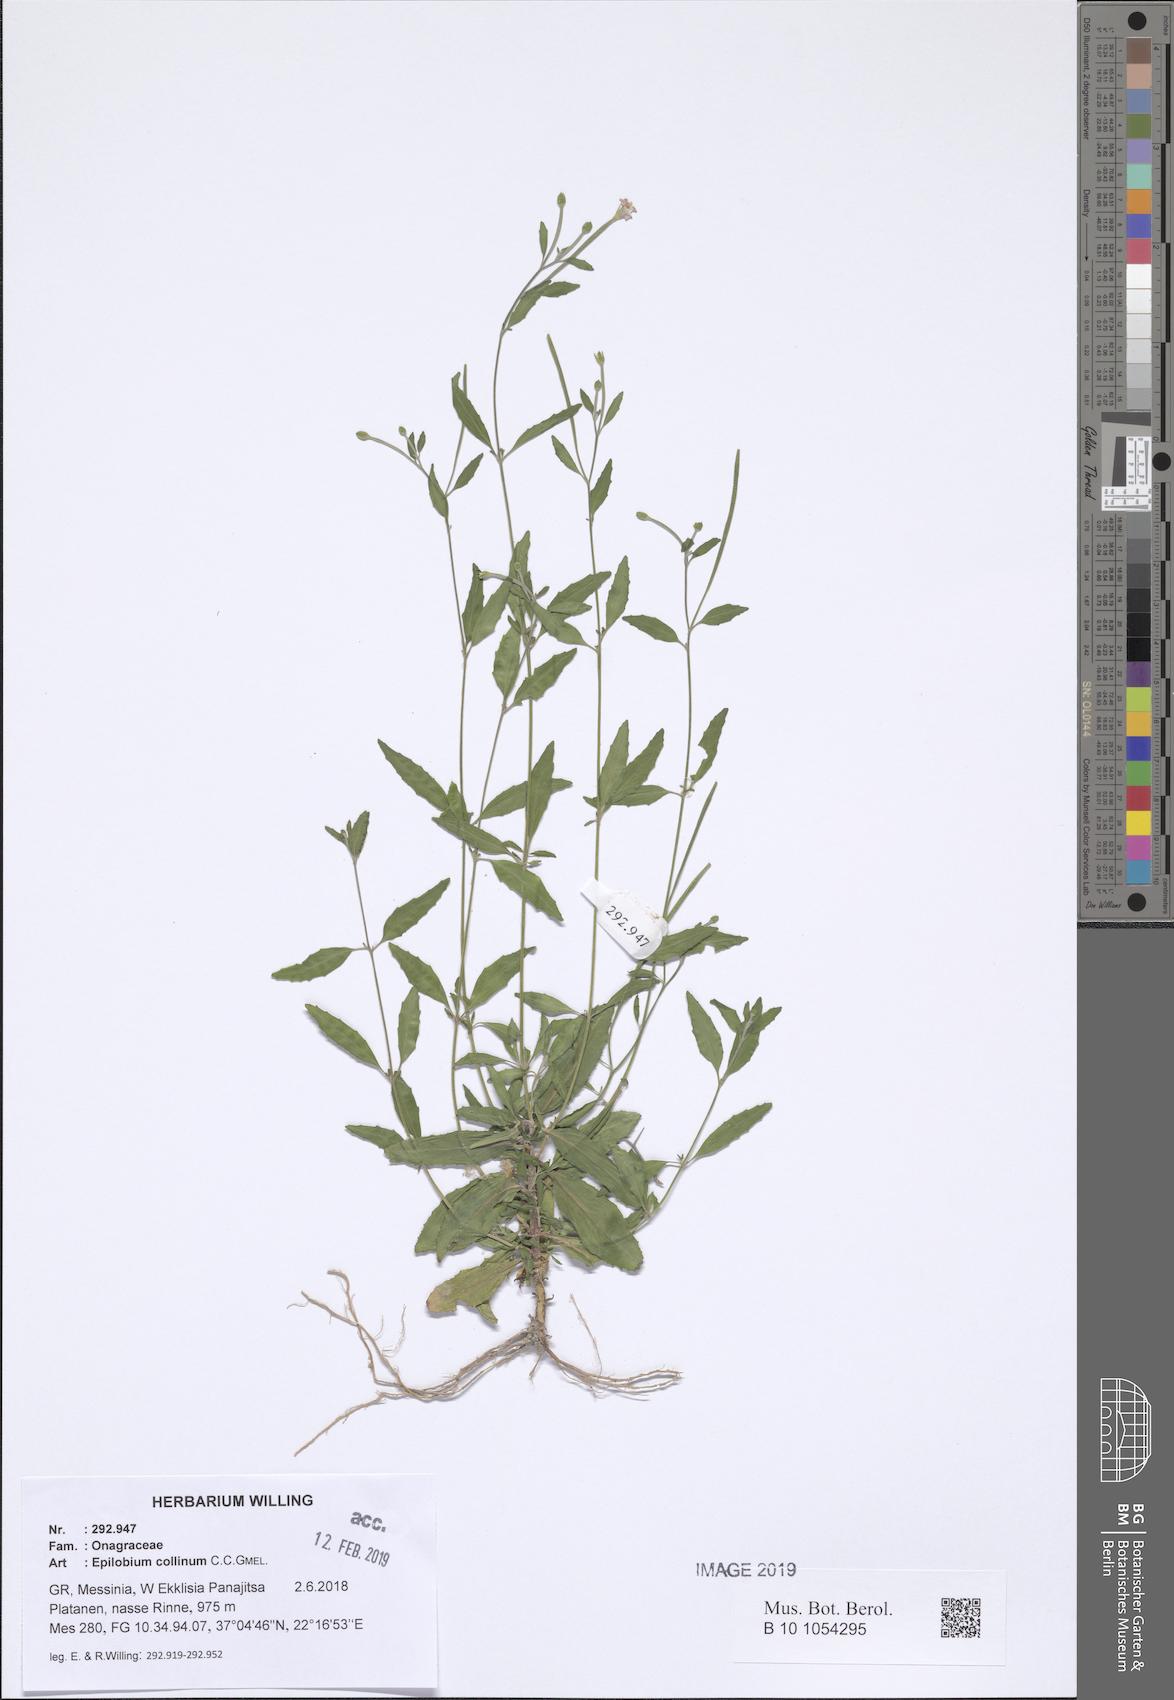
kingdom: Plantae
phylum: Tracheophyta
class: Magnoliopsida
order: Myrtales
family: Onagraceae
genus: Epilobium
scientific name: Epilobium lanceolatum
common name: Spear-leaved willowherb
